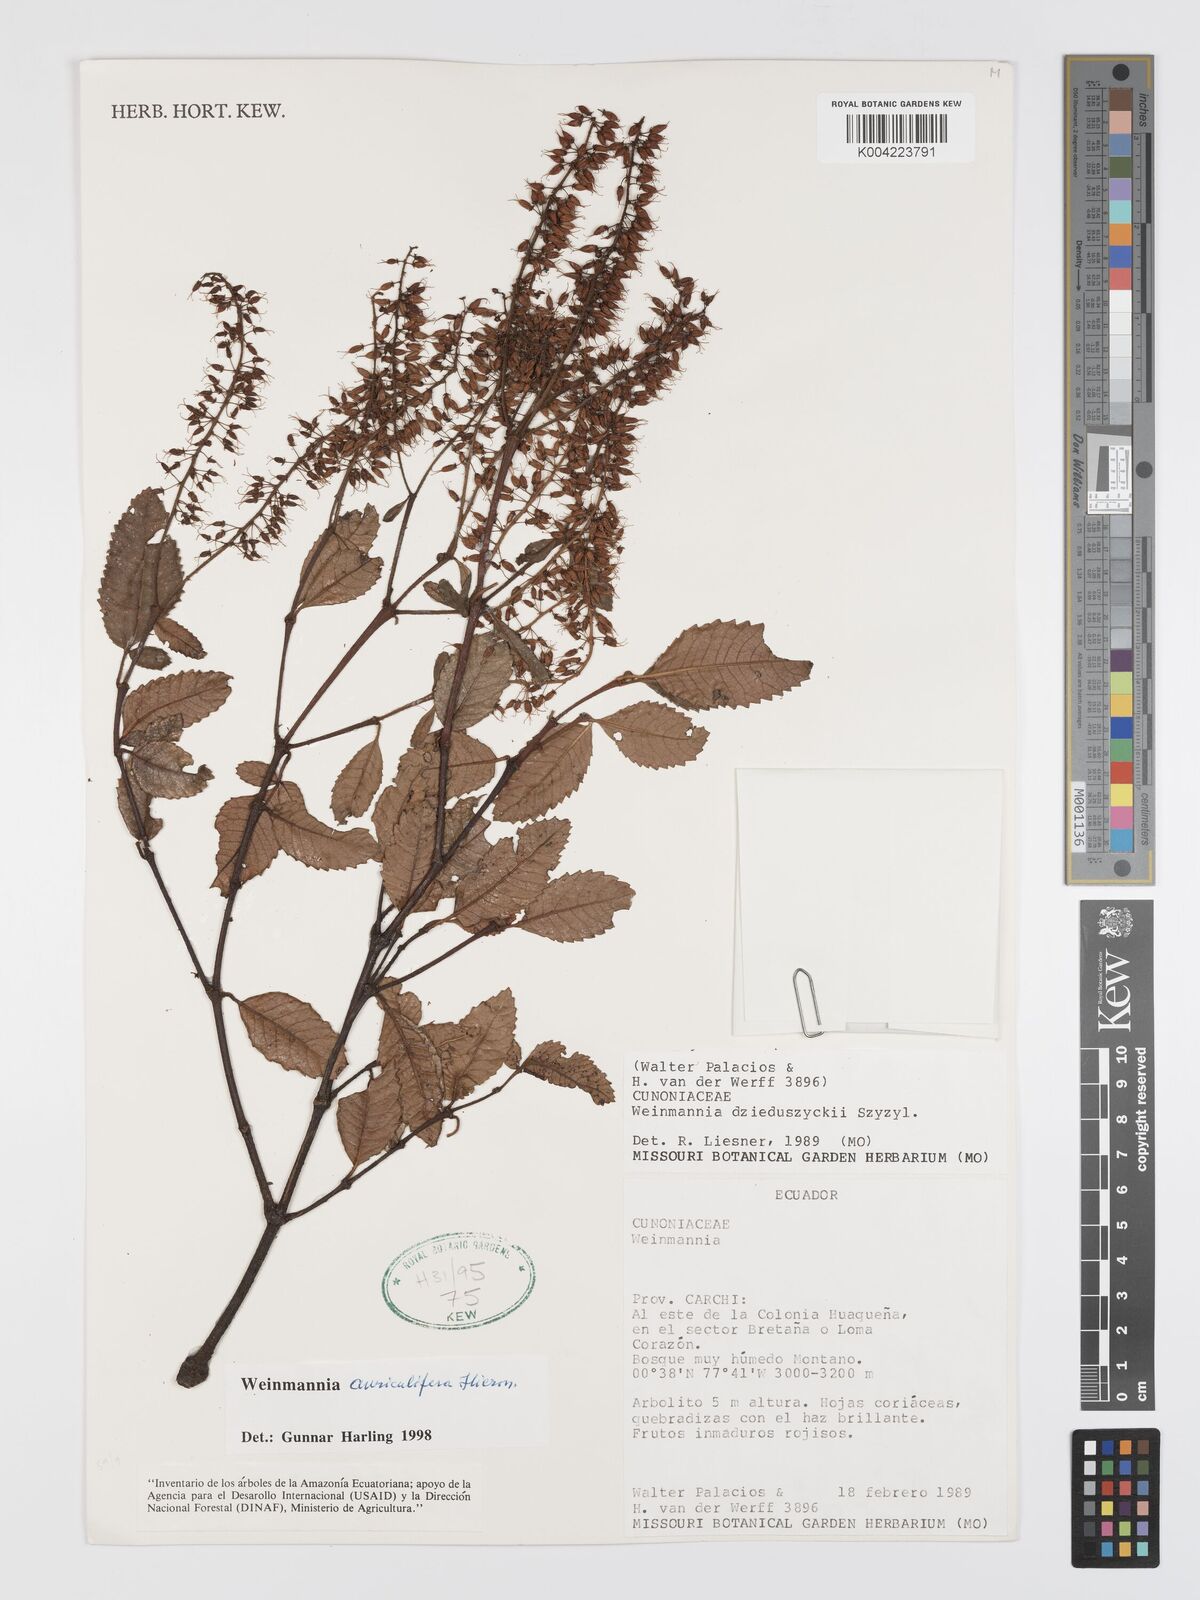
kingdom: Plantae
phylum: Tracheophyta
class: Magnoliopsida
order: Oxalidales
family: Cunoniaceae
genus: Weinmannia
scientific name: Weinmannia cordata
